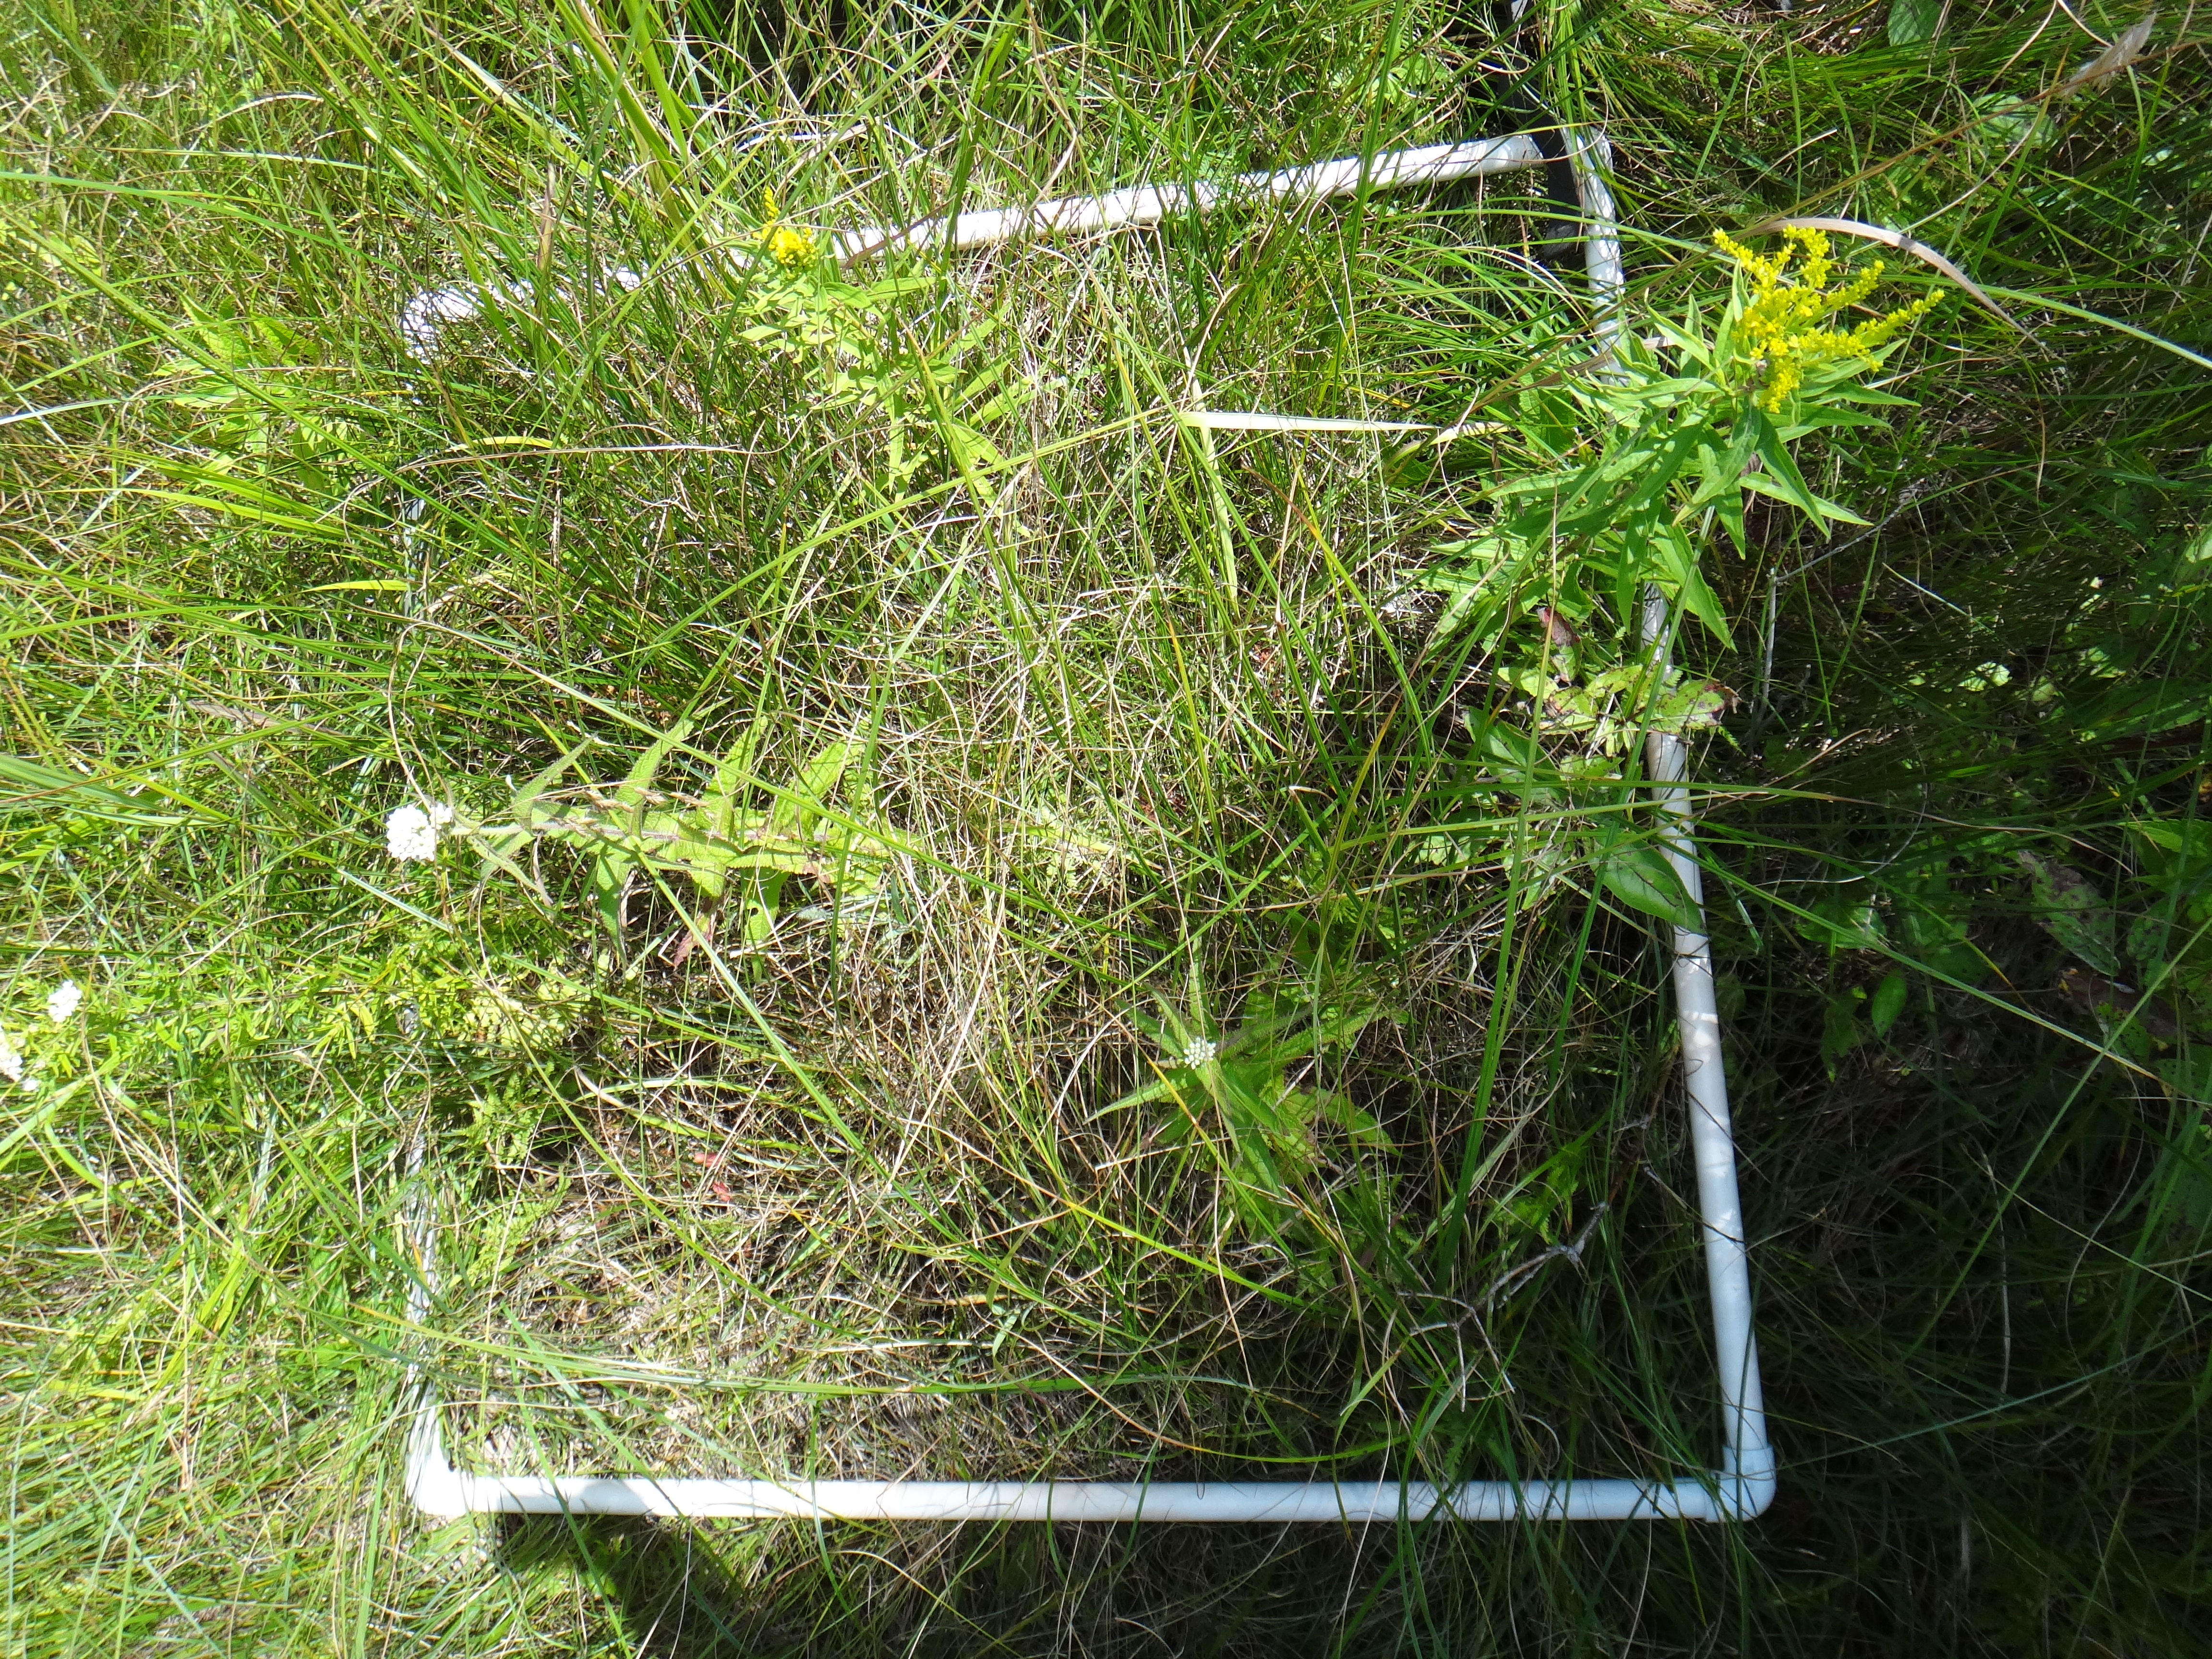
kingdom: Plantae
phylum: Tracheophyta
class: Magnoliopsida
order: Cornales
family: Cornaceae
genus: Cornus
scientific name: Cornus sericea
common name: Red-osier dogwood
